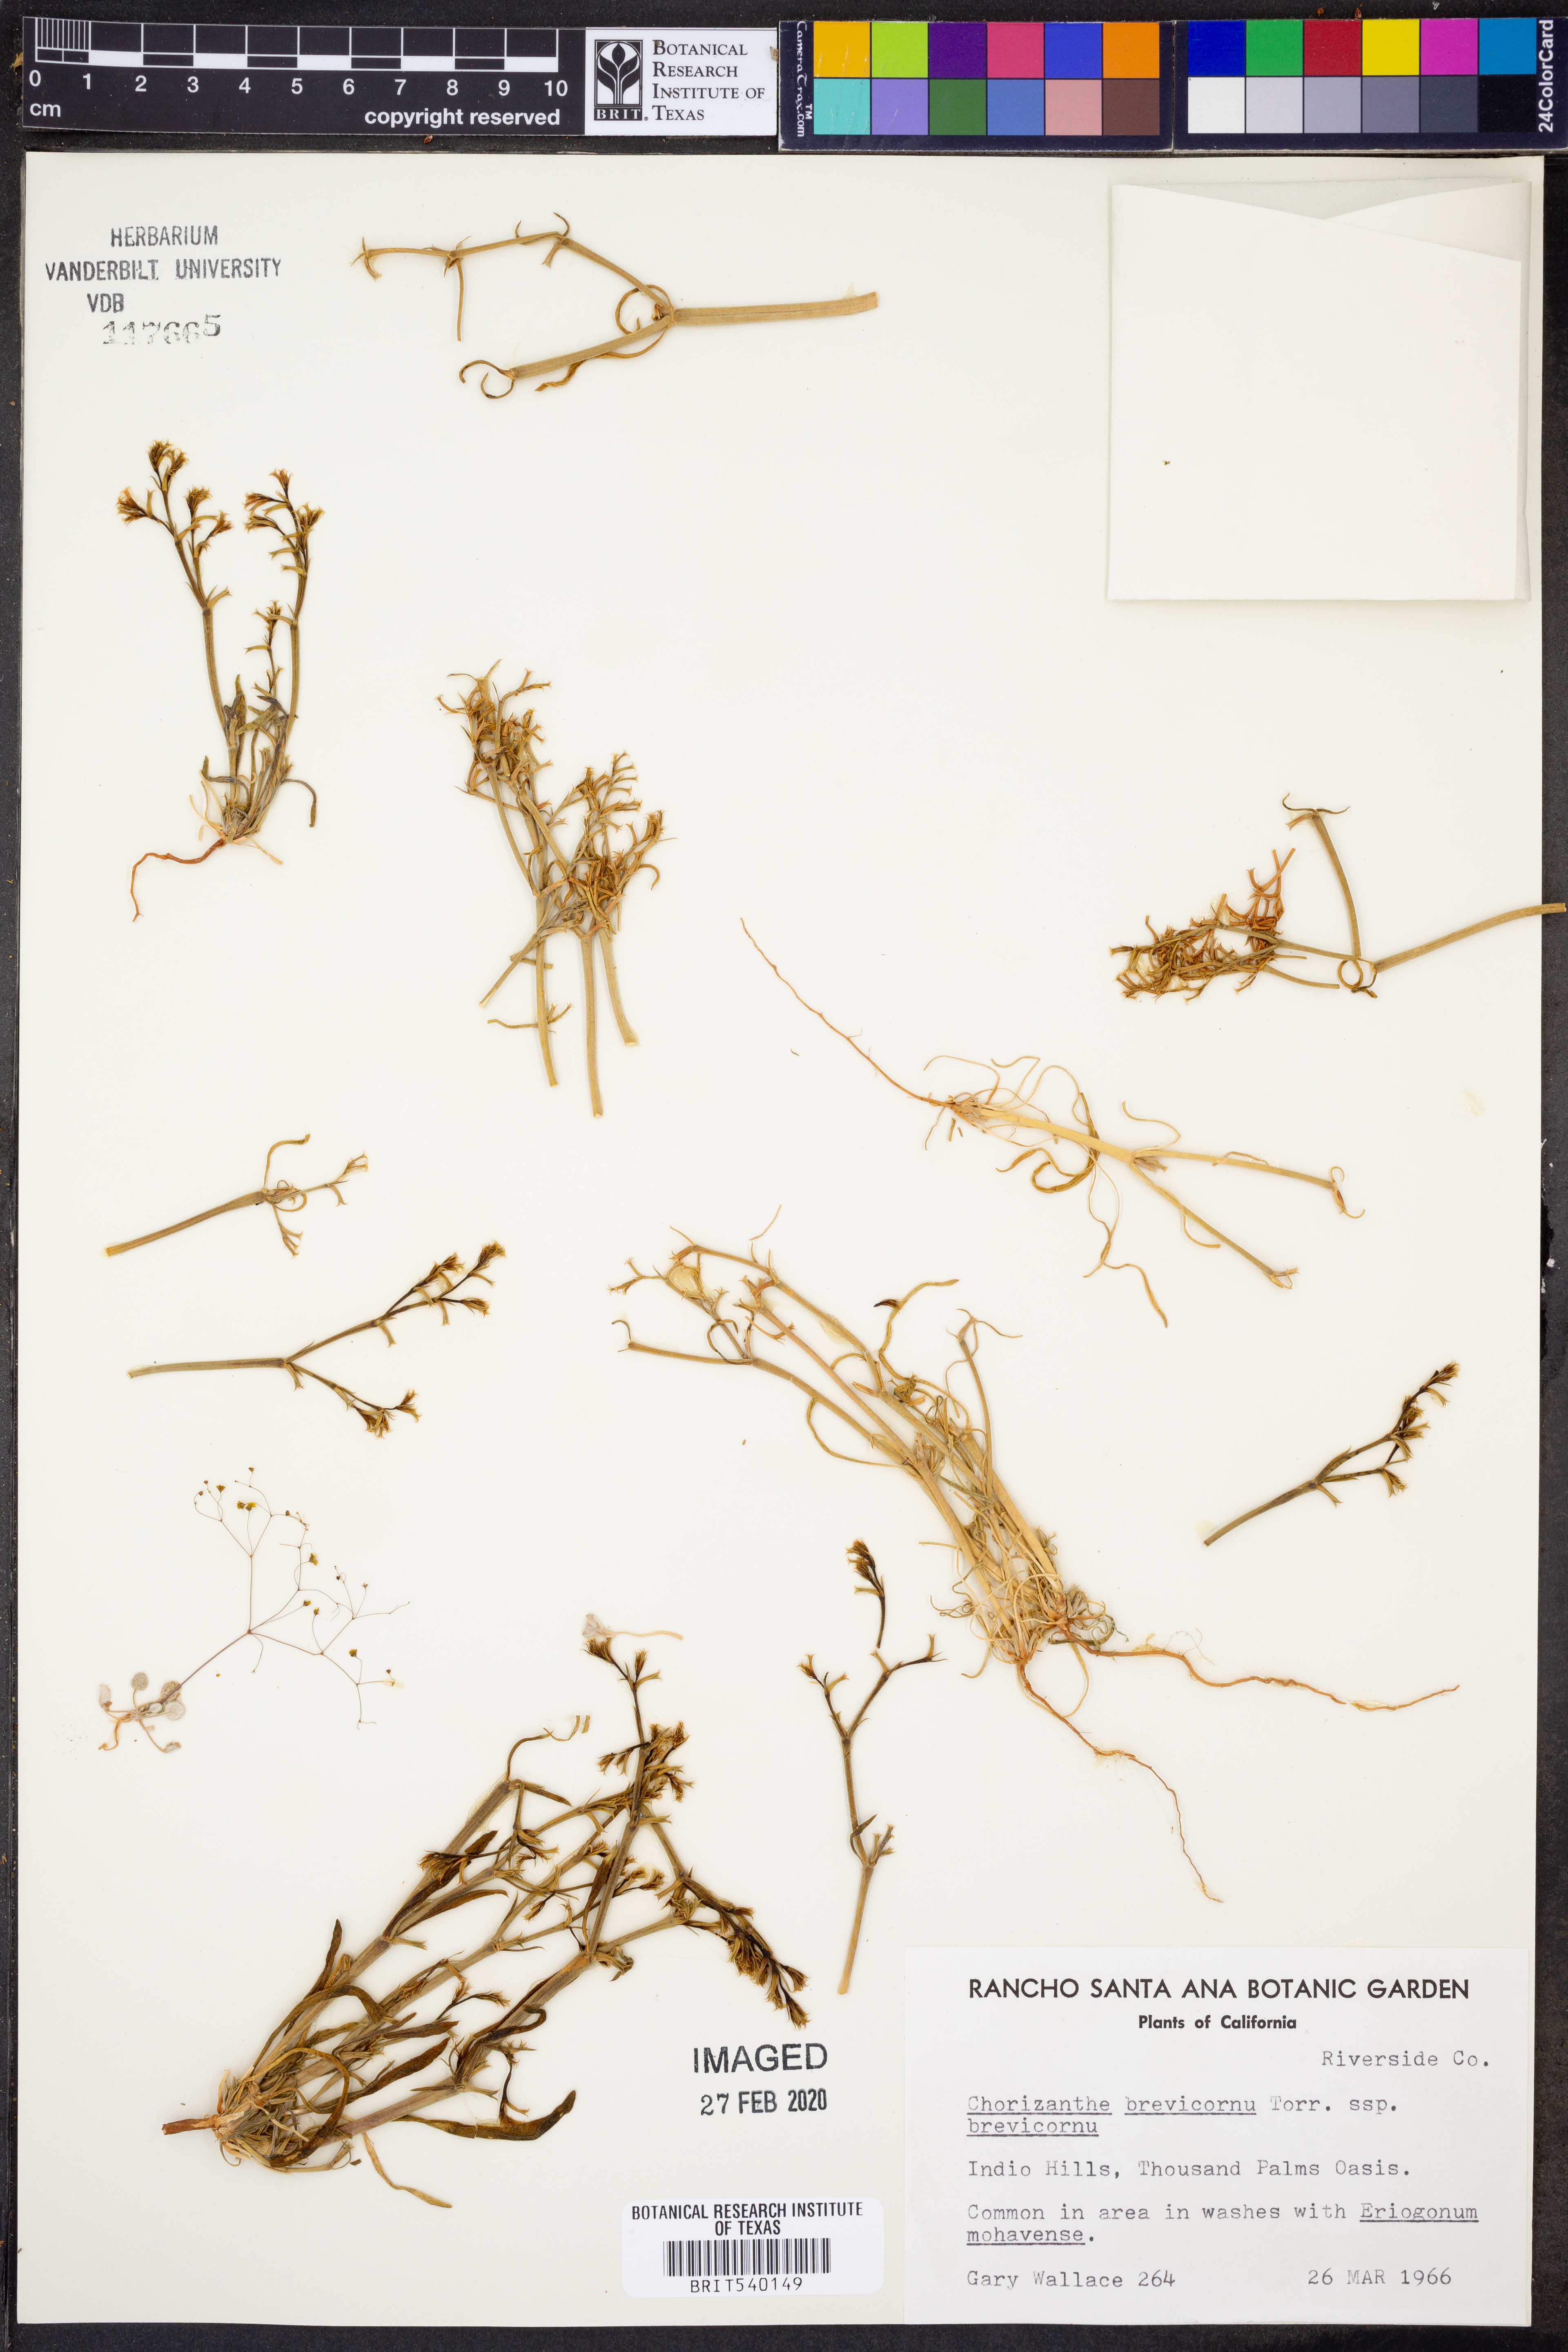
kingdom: Plantae
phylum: Tracheophyta
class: Magnoliopsida
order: Caryophyllales
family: Polygonaceae
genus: Chorizanthe
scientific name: Chorizanthe brevicornu
